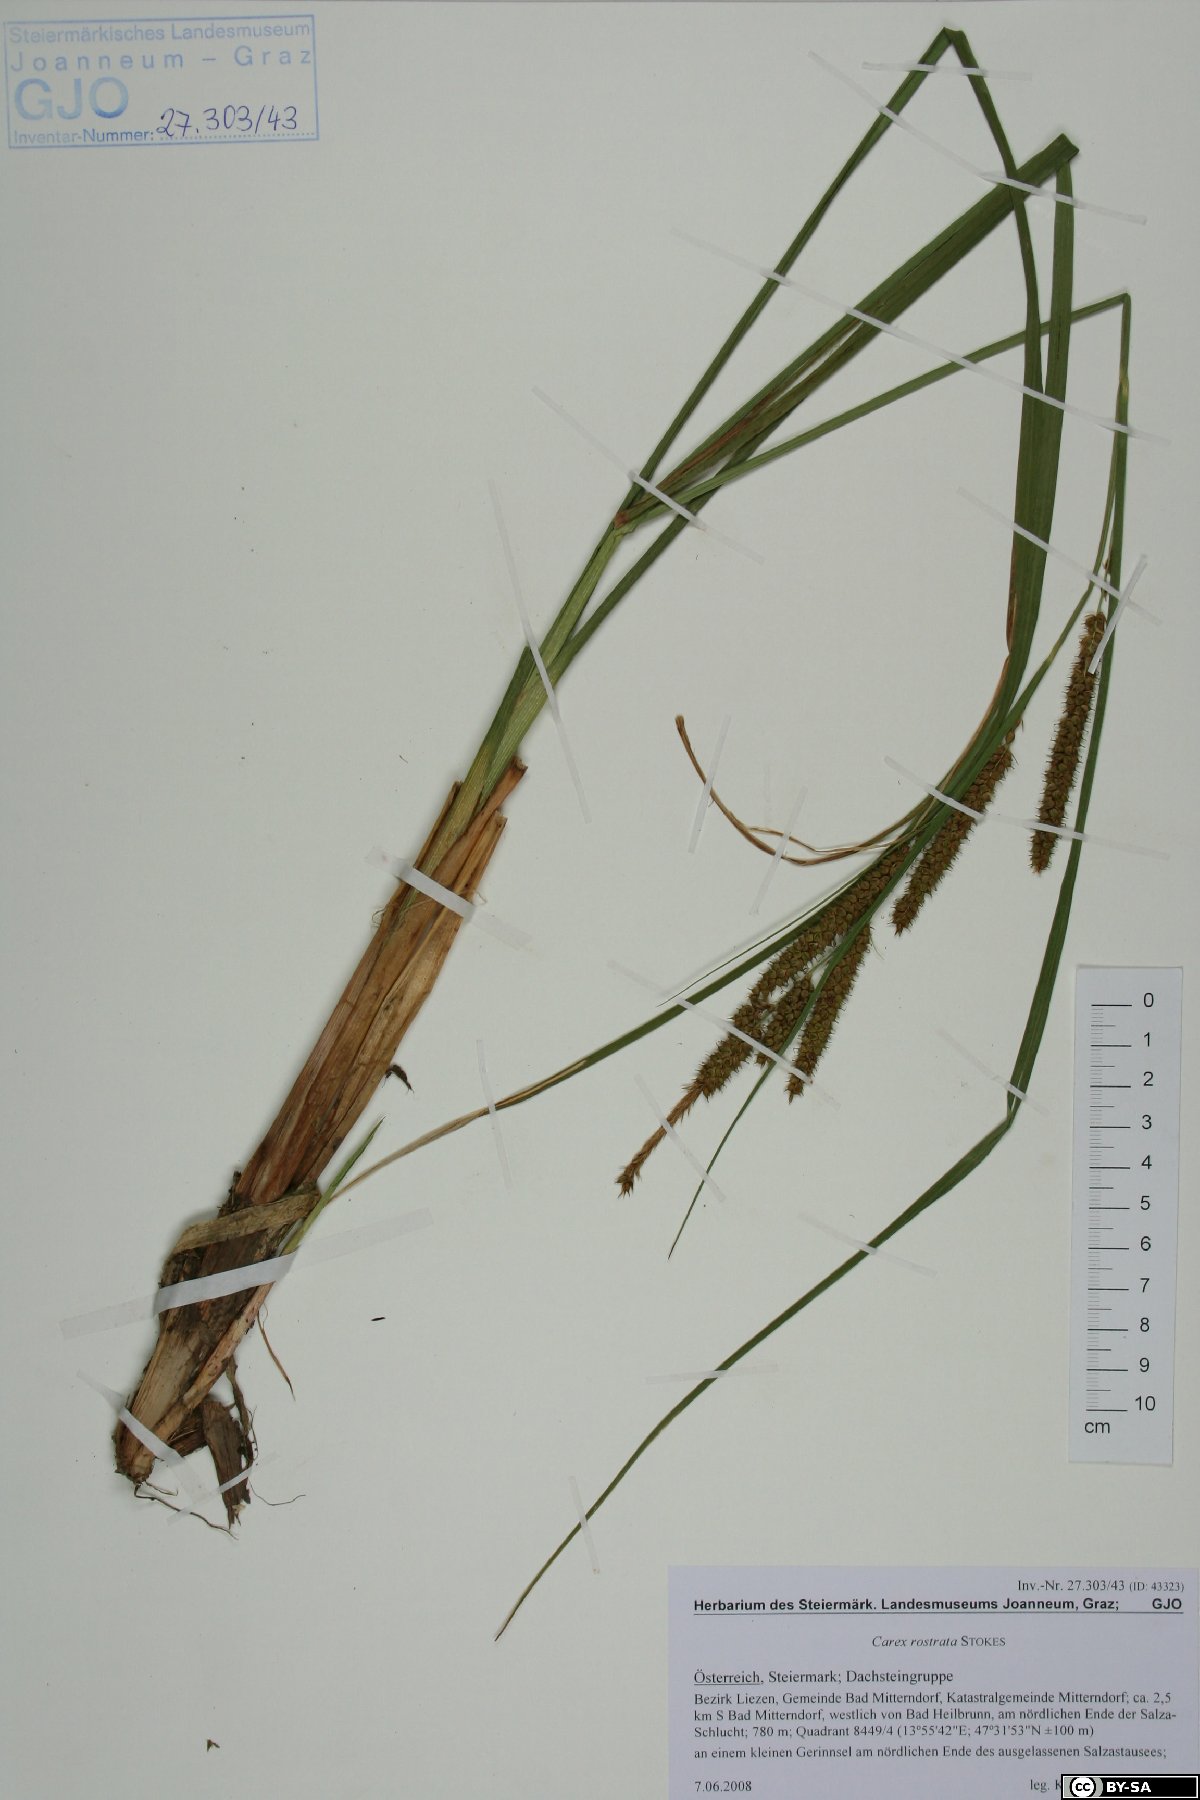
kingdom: Plantae
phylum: Tracheophyta
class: Liliopsida
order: Poales
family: Cyperaceae
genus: Carex
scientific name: Carex rostrata
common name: Bottle sedge
